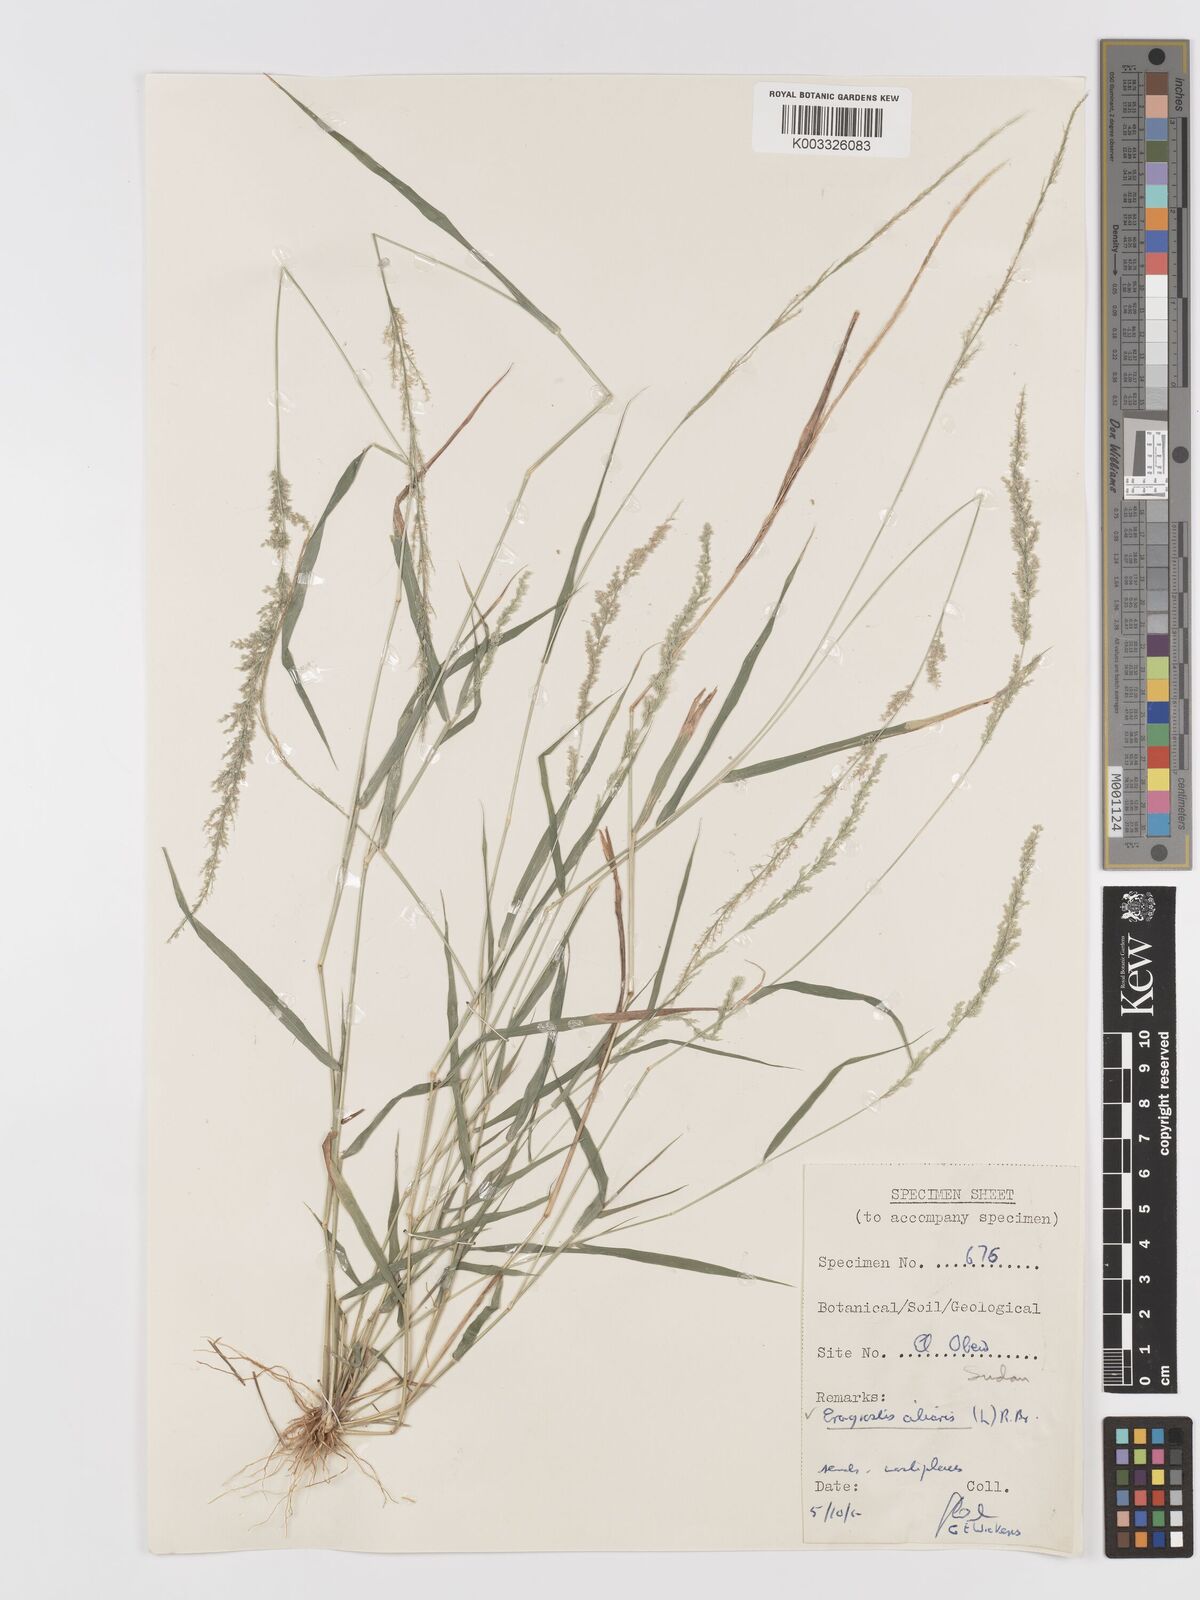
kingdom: Plantae
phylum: Tracheophyta
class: Liliopsida
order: Poales
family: Poaceae
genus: Eragrostis
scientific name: Eragrostis ciliaris
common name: Gophertail lovegrass
